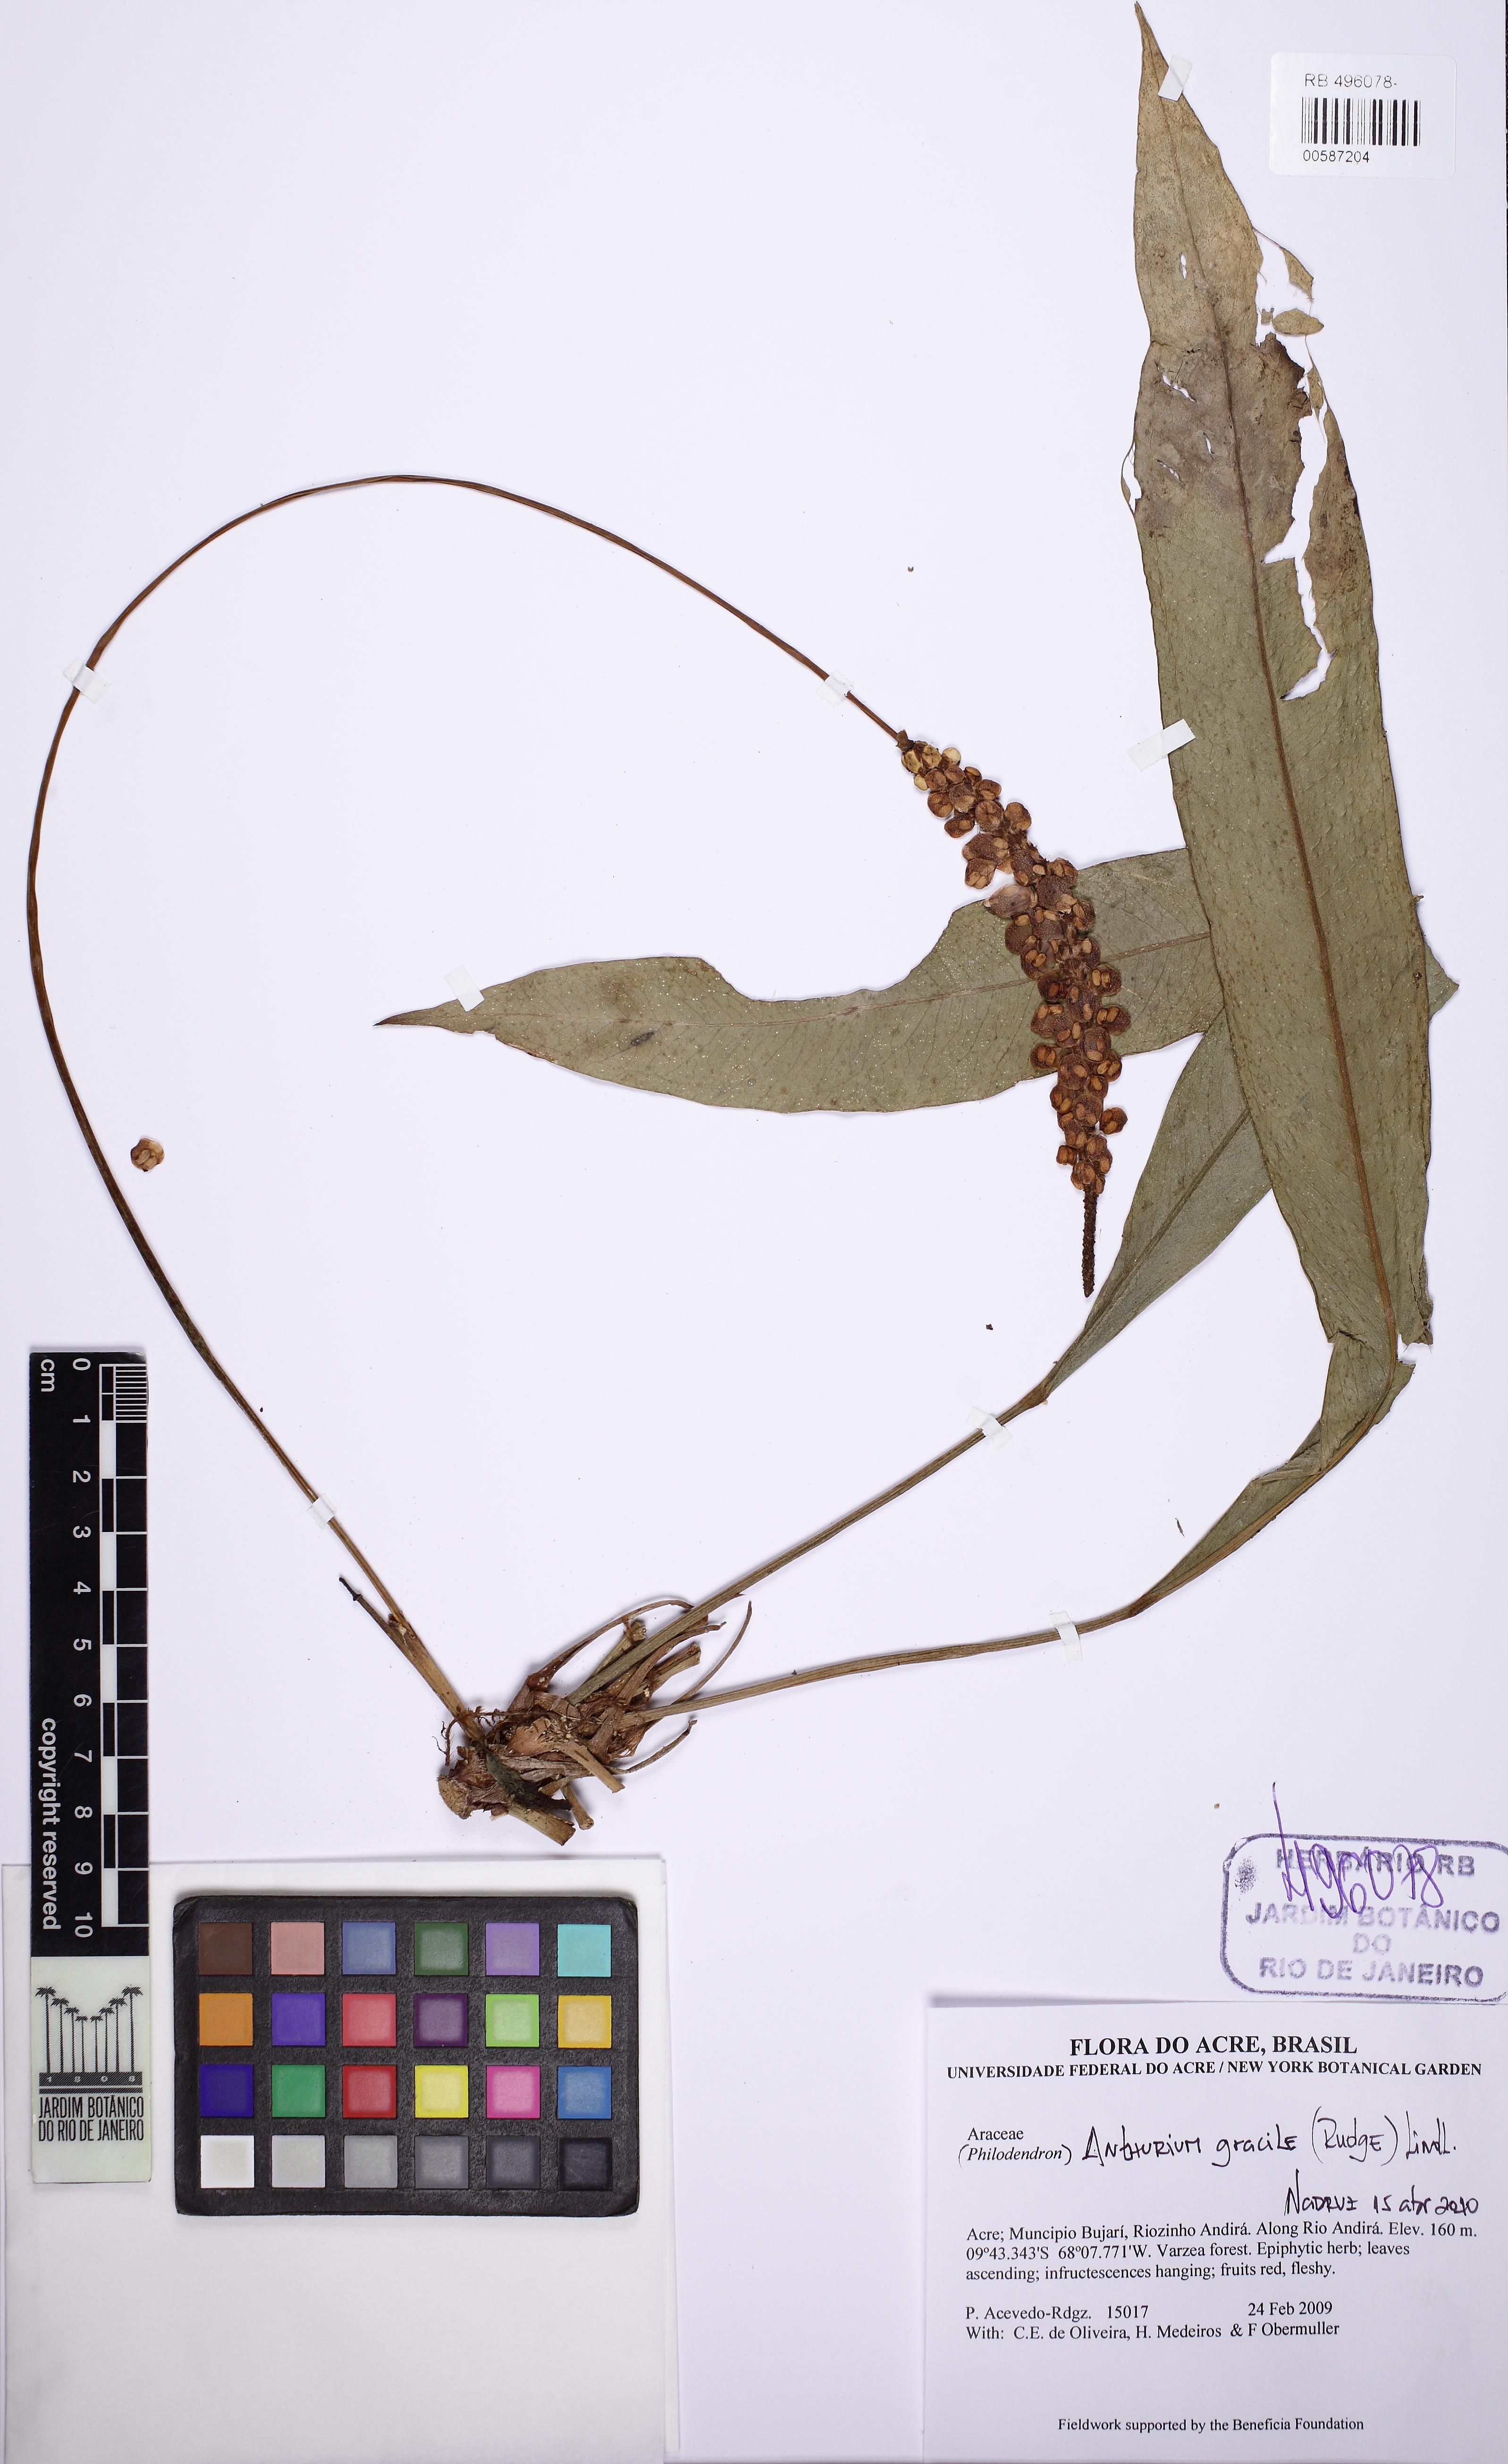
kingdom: Plantae
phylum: Tracheophyta
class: Liliopsida
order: Alismatales
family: Araceae
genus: Anthurium
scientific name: Anthurium gracile
